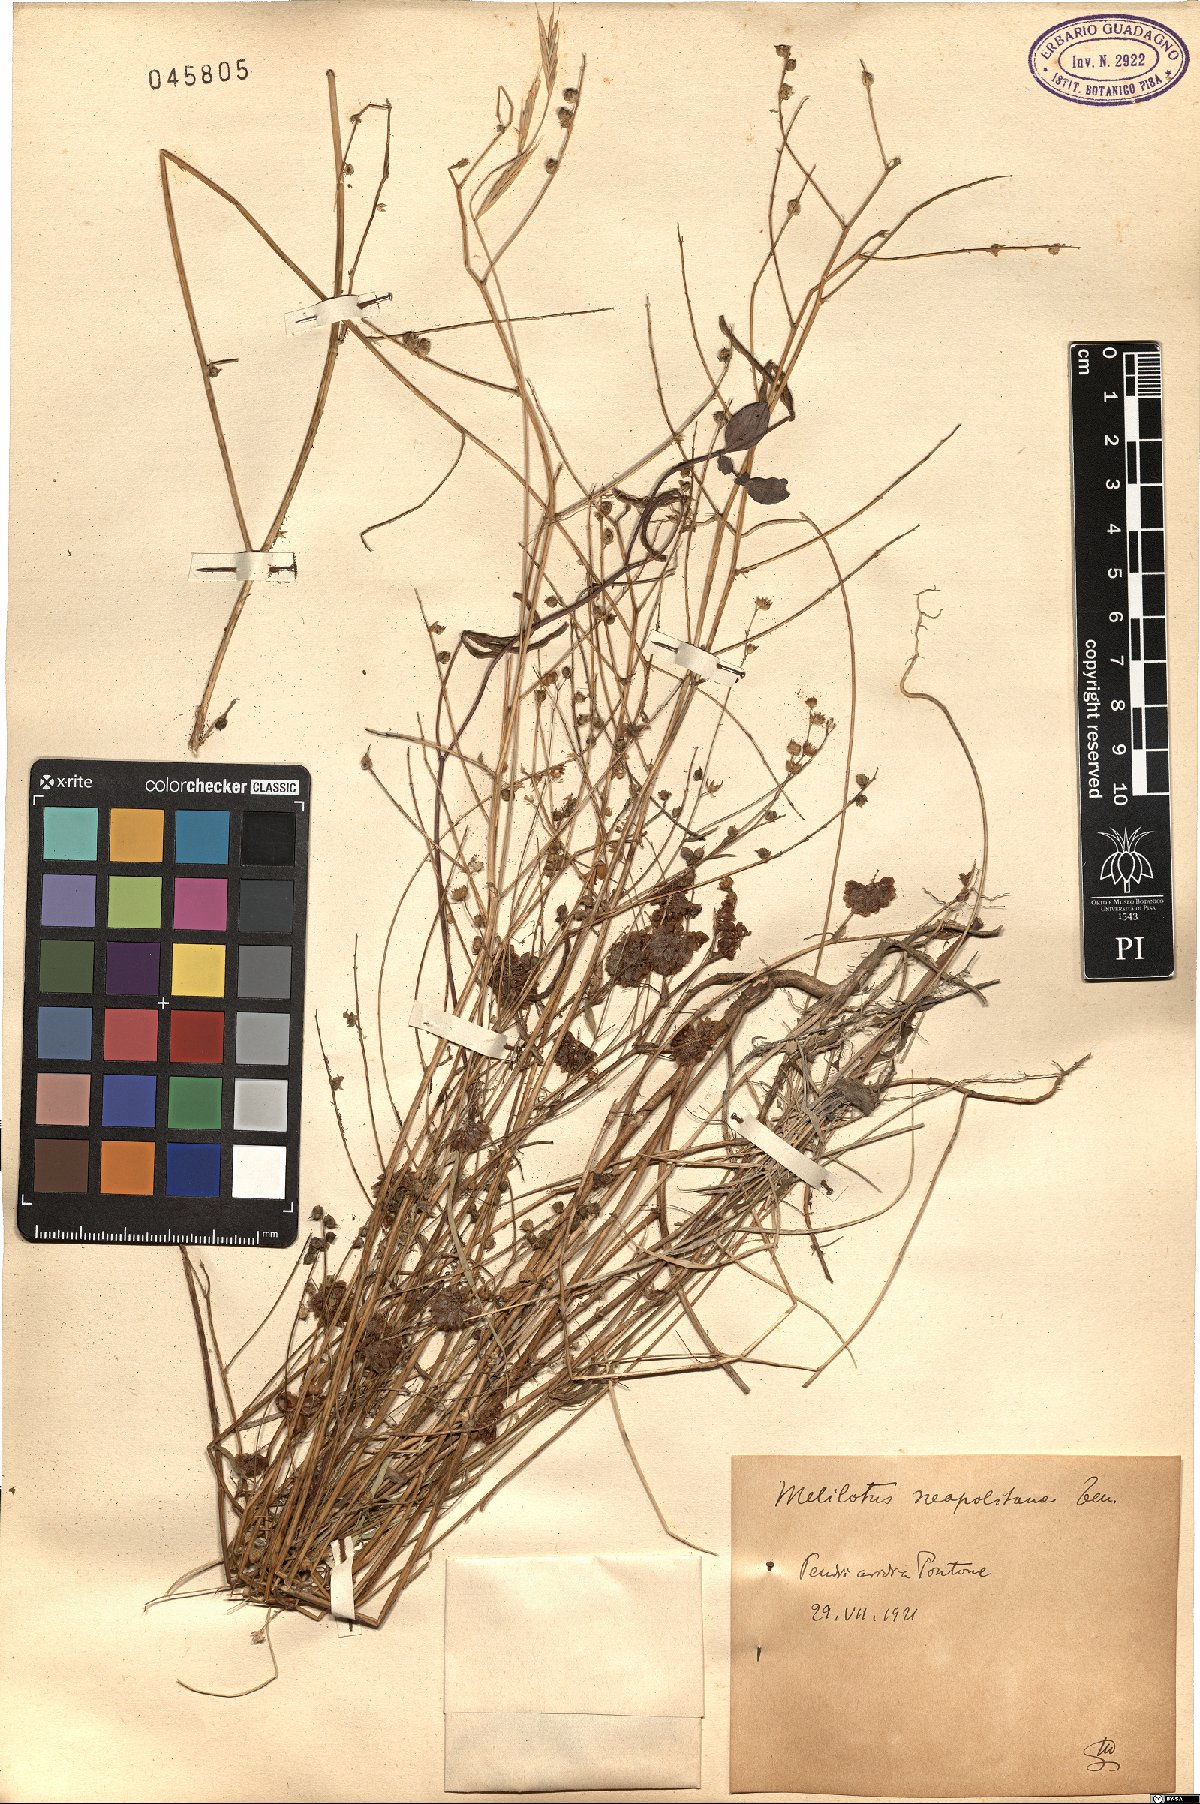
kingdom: Plantae
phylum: Tracheophyta
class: Magnoliopsida
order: Fabales
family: Fabaceae
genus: Melilotus
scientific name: Melilotus neapolitanus
